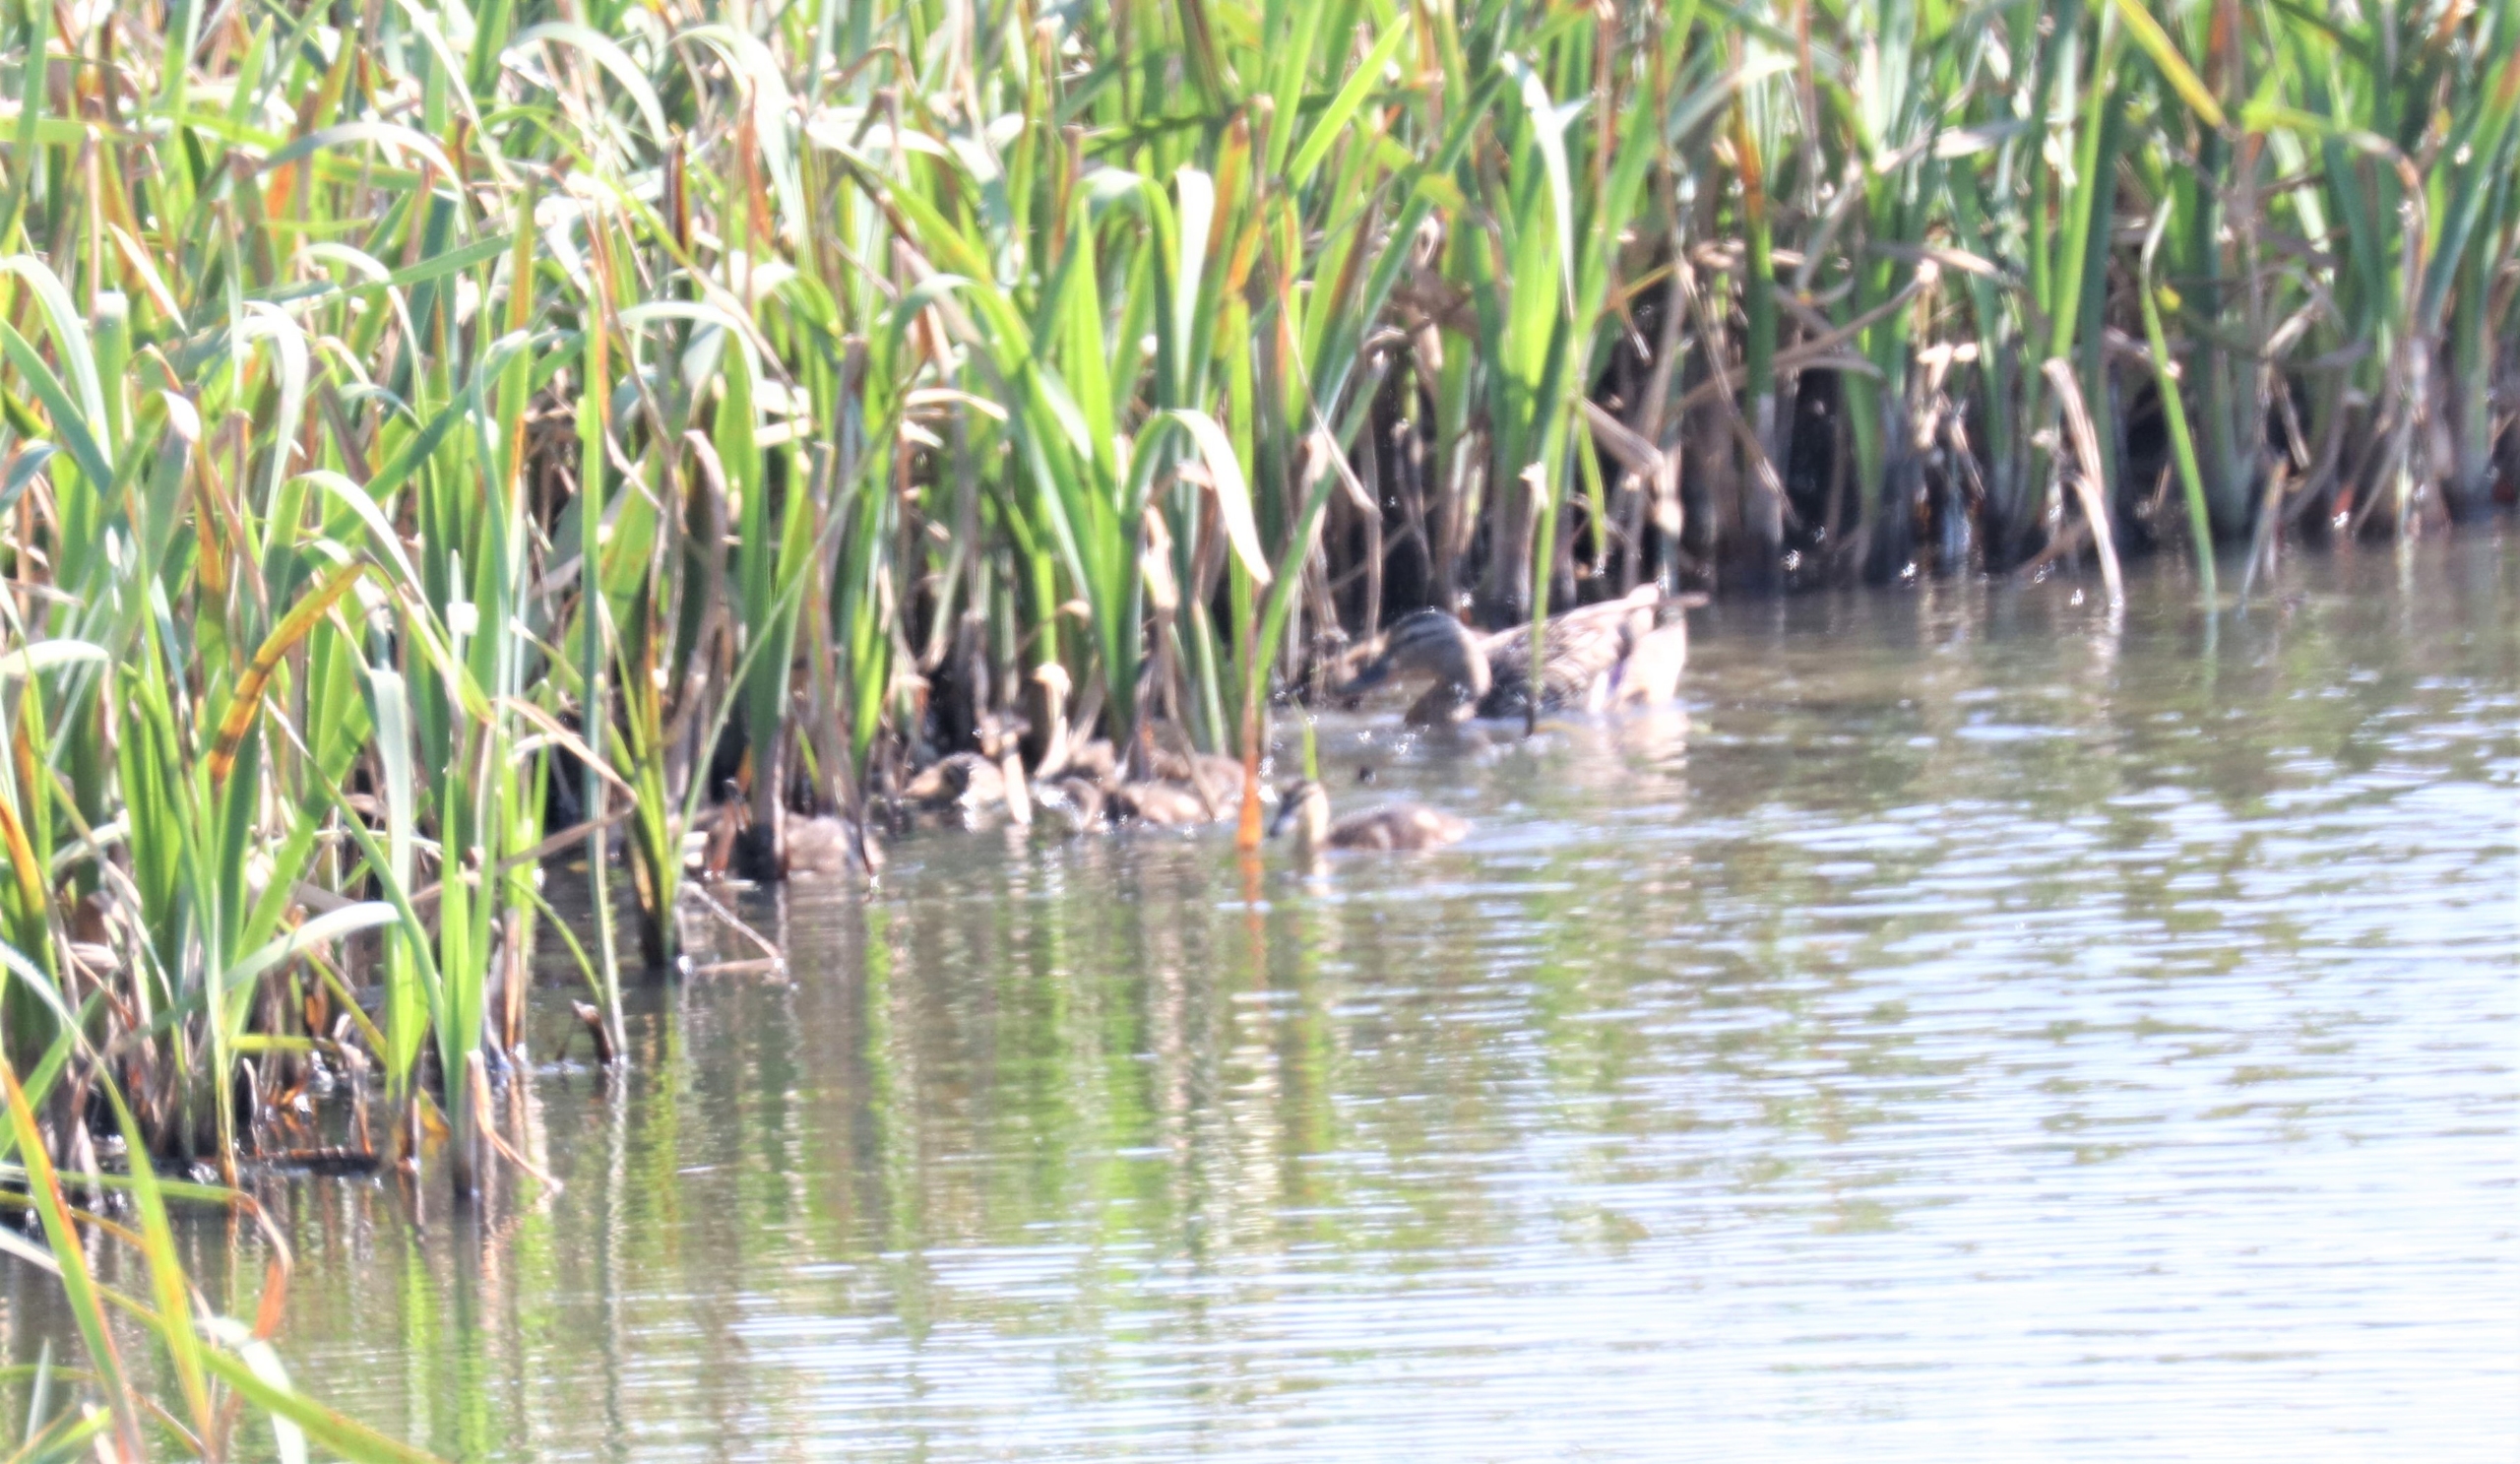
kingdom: Animalia
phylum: Chordata
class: Aves
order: Anseriformes
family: Anatidae
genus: Anas
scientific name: Anas platyrhynchos
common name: Gråand
